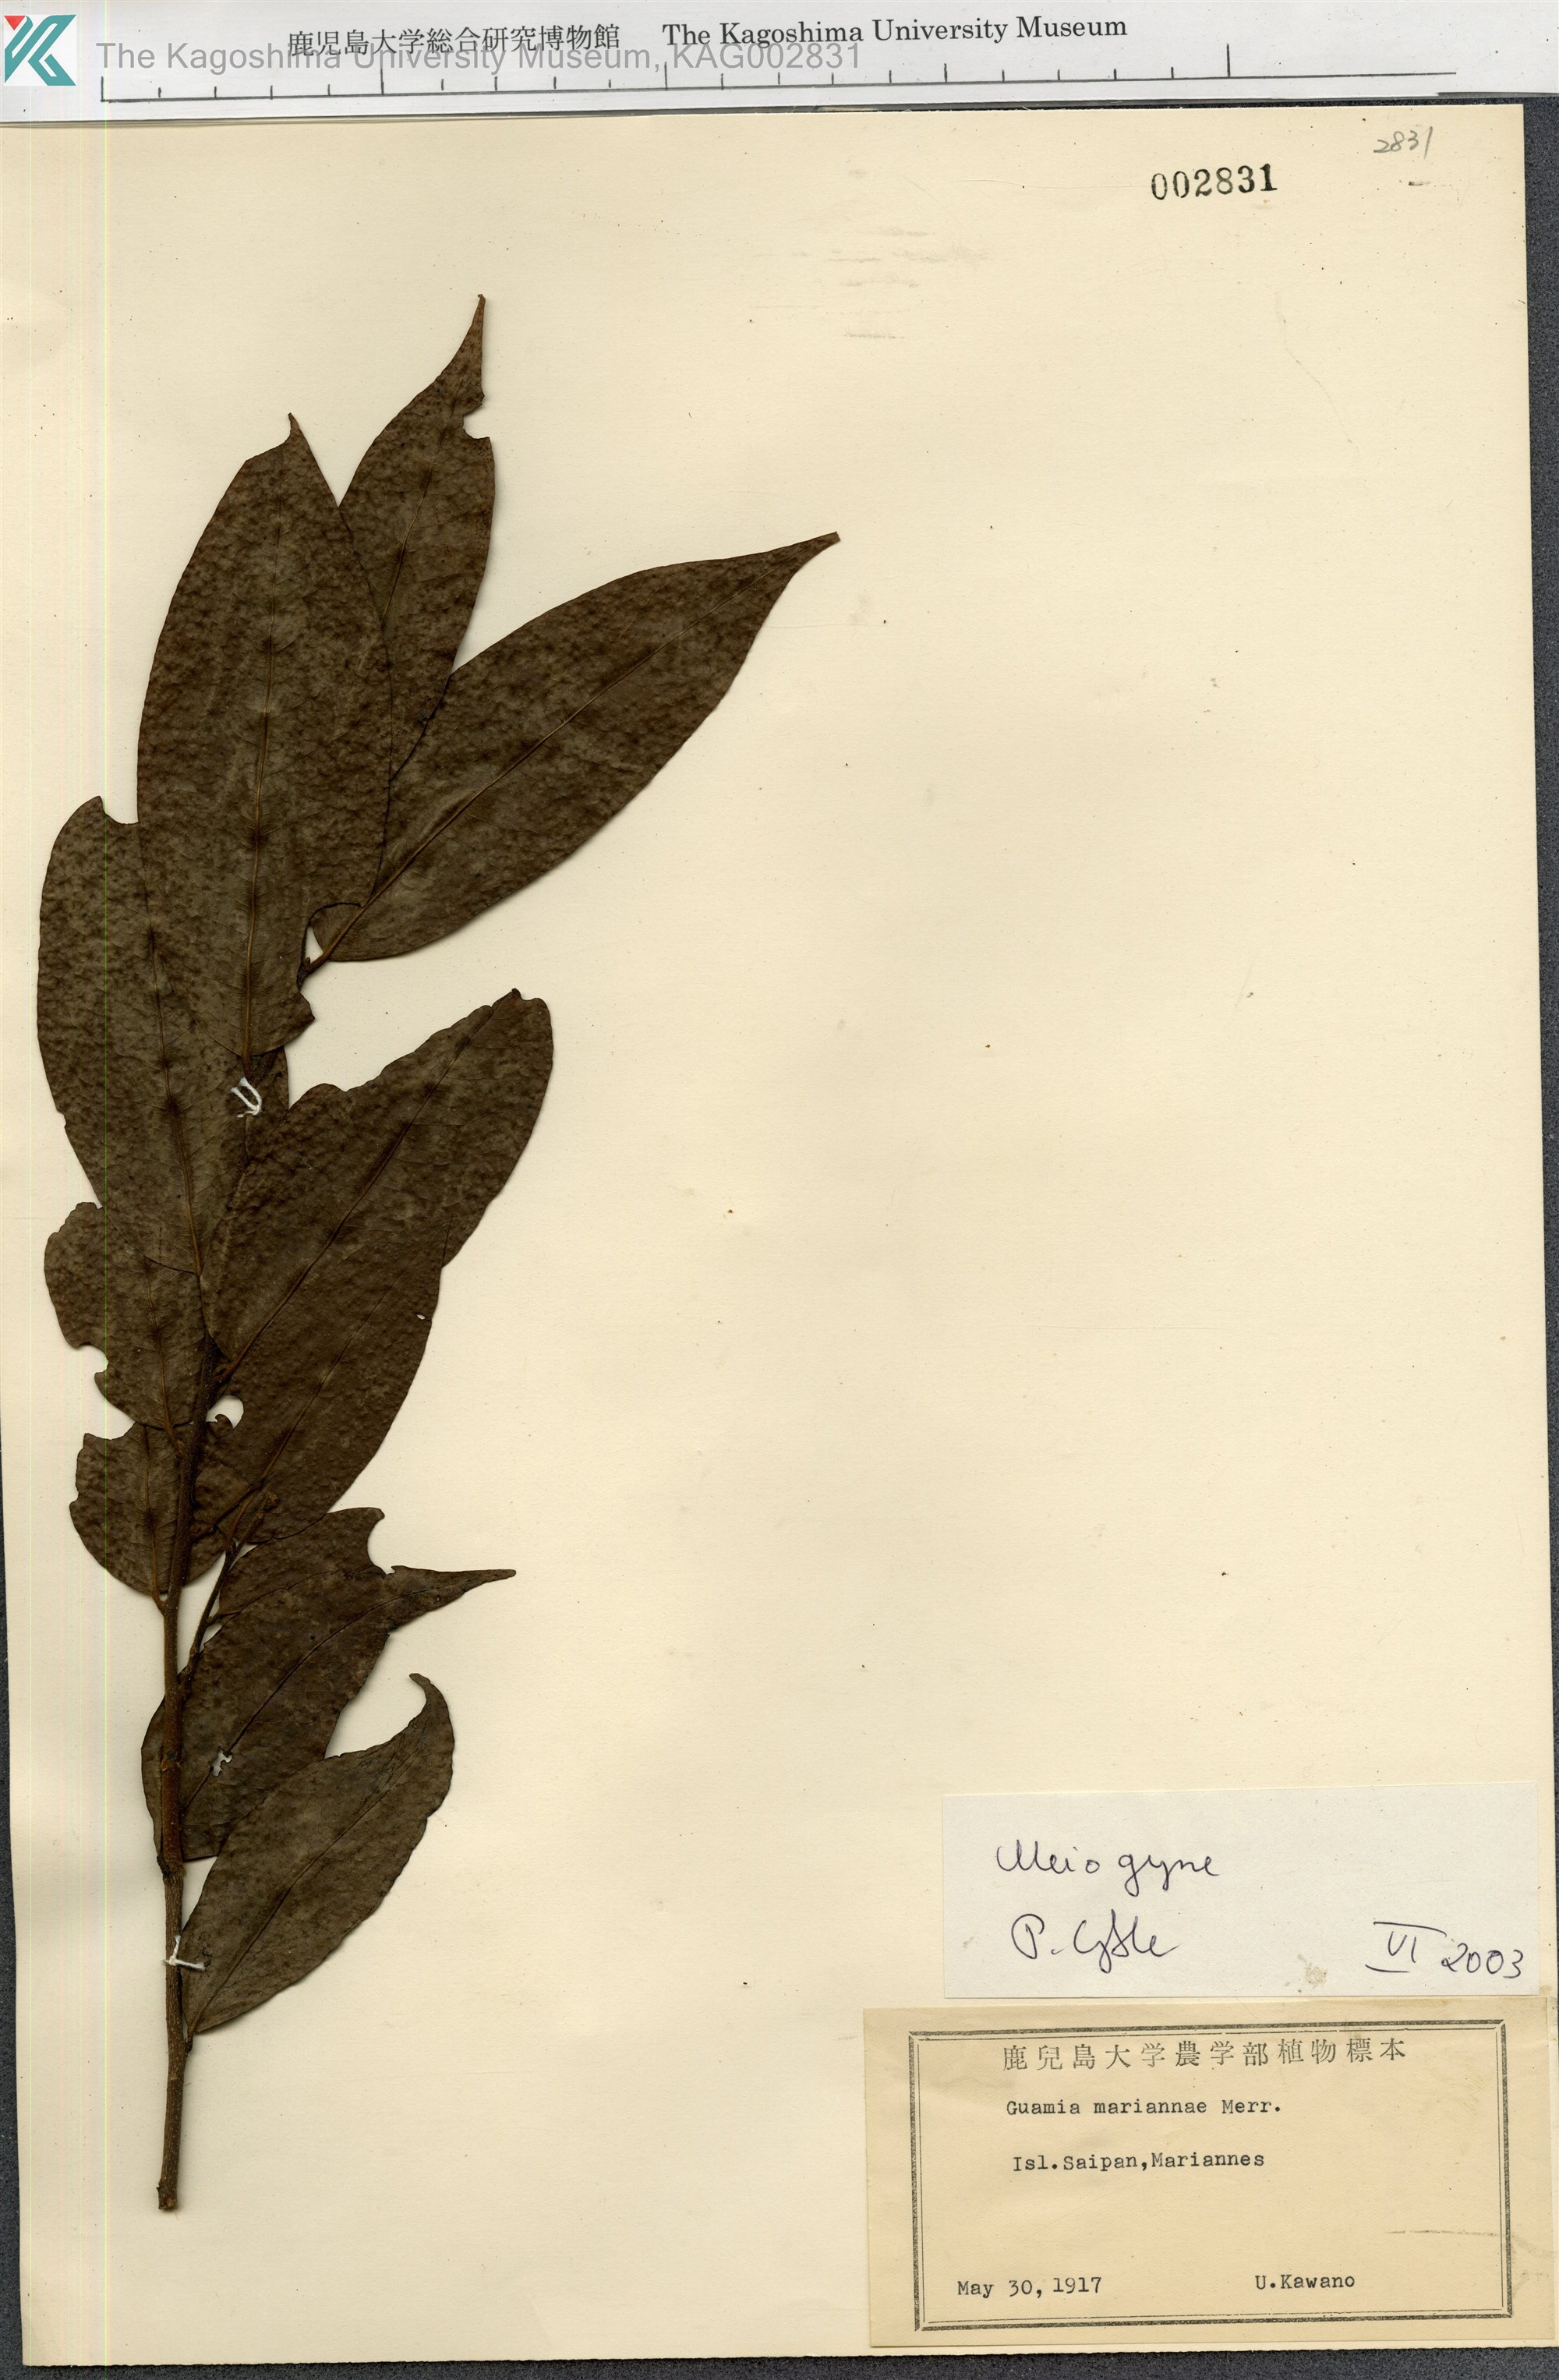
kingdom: Plantae
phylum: Tracheophyta
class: Magnoliopsida
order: Magnoliales
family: Annonaceae
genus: Meiogyne
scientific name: Meiogyne
